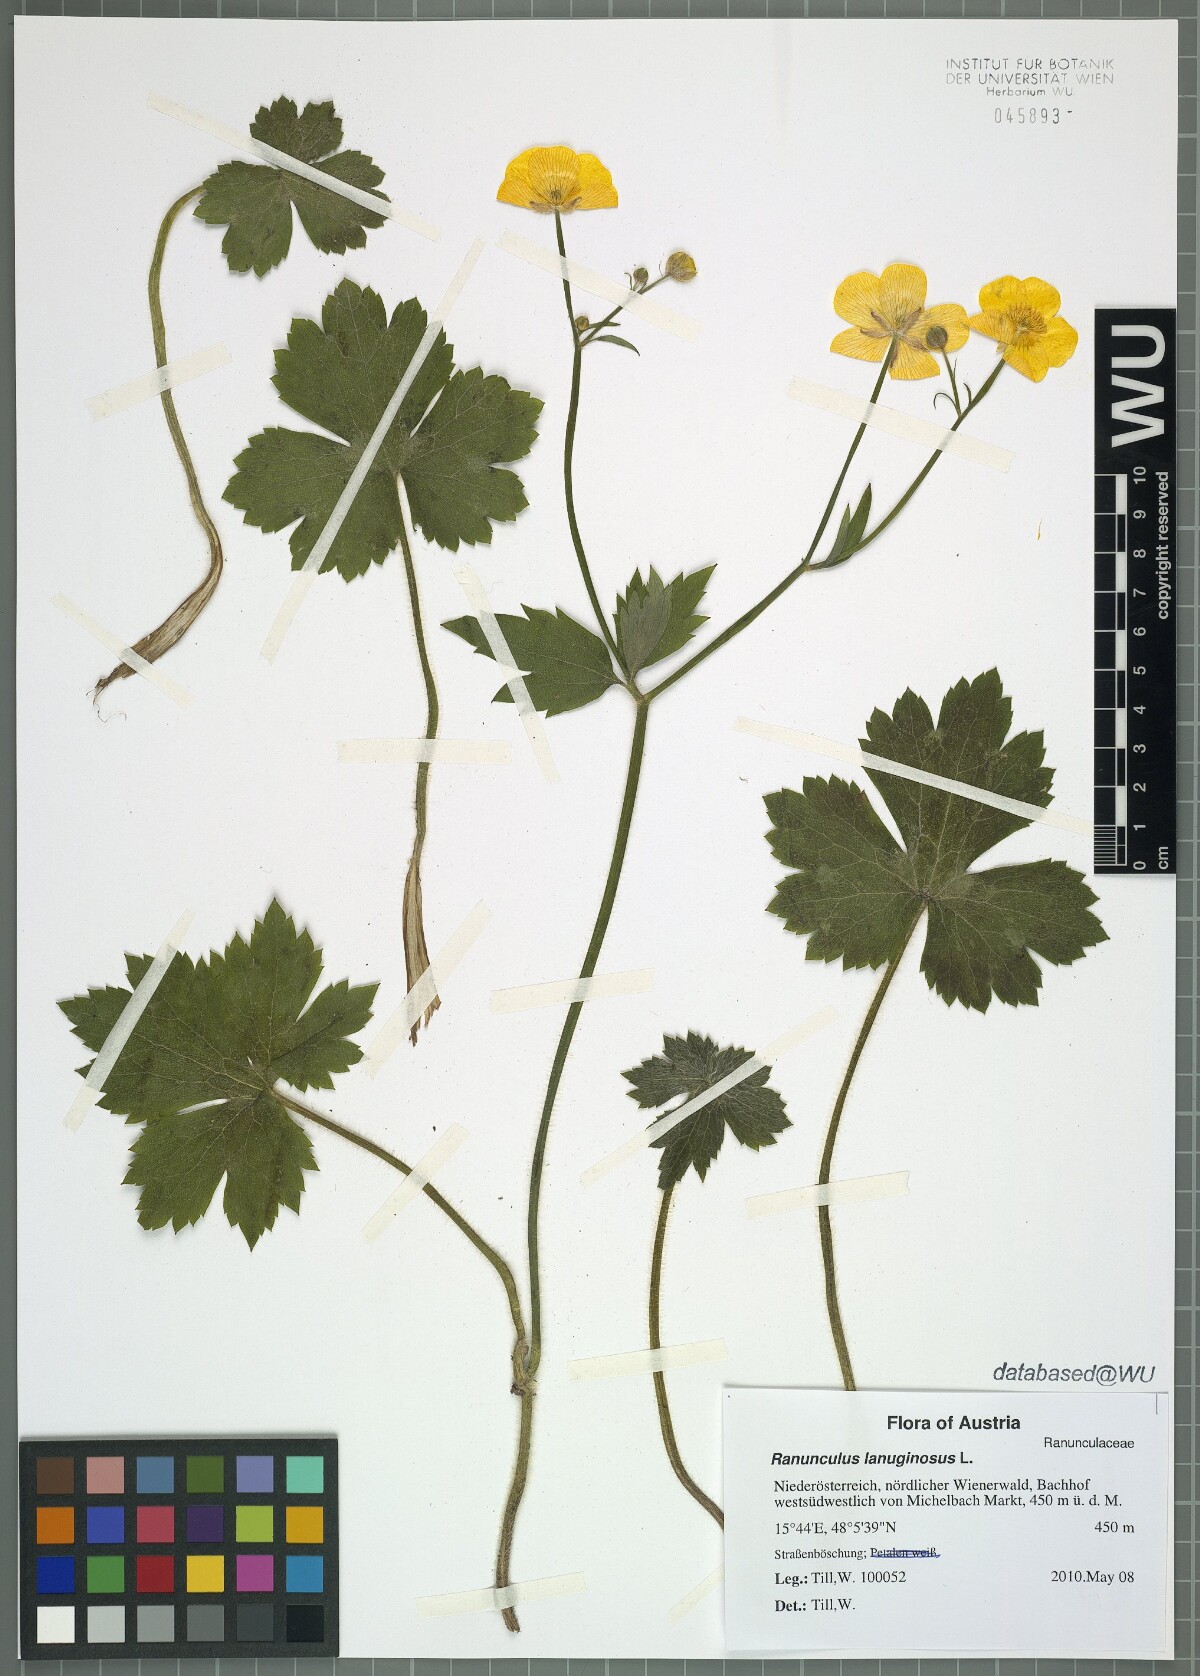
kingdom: Plantae
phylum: Tracheophyta
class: Magnoliopsida
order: Ranunculales
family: Ranunculaceae
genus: Ranunculus
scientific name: Ranunculus lanuginosus
